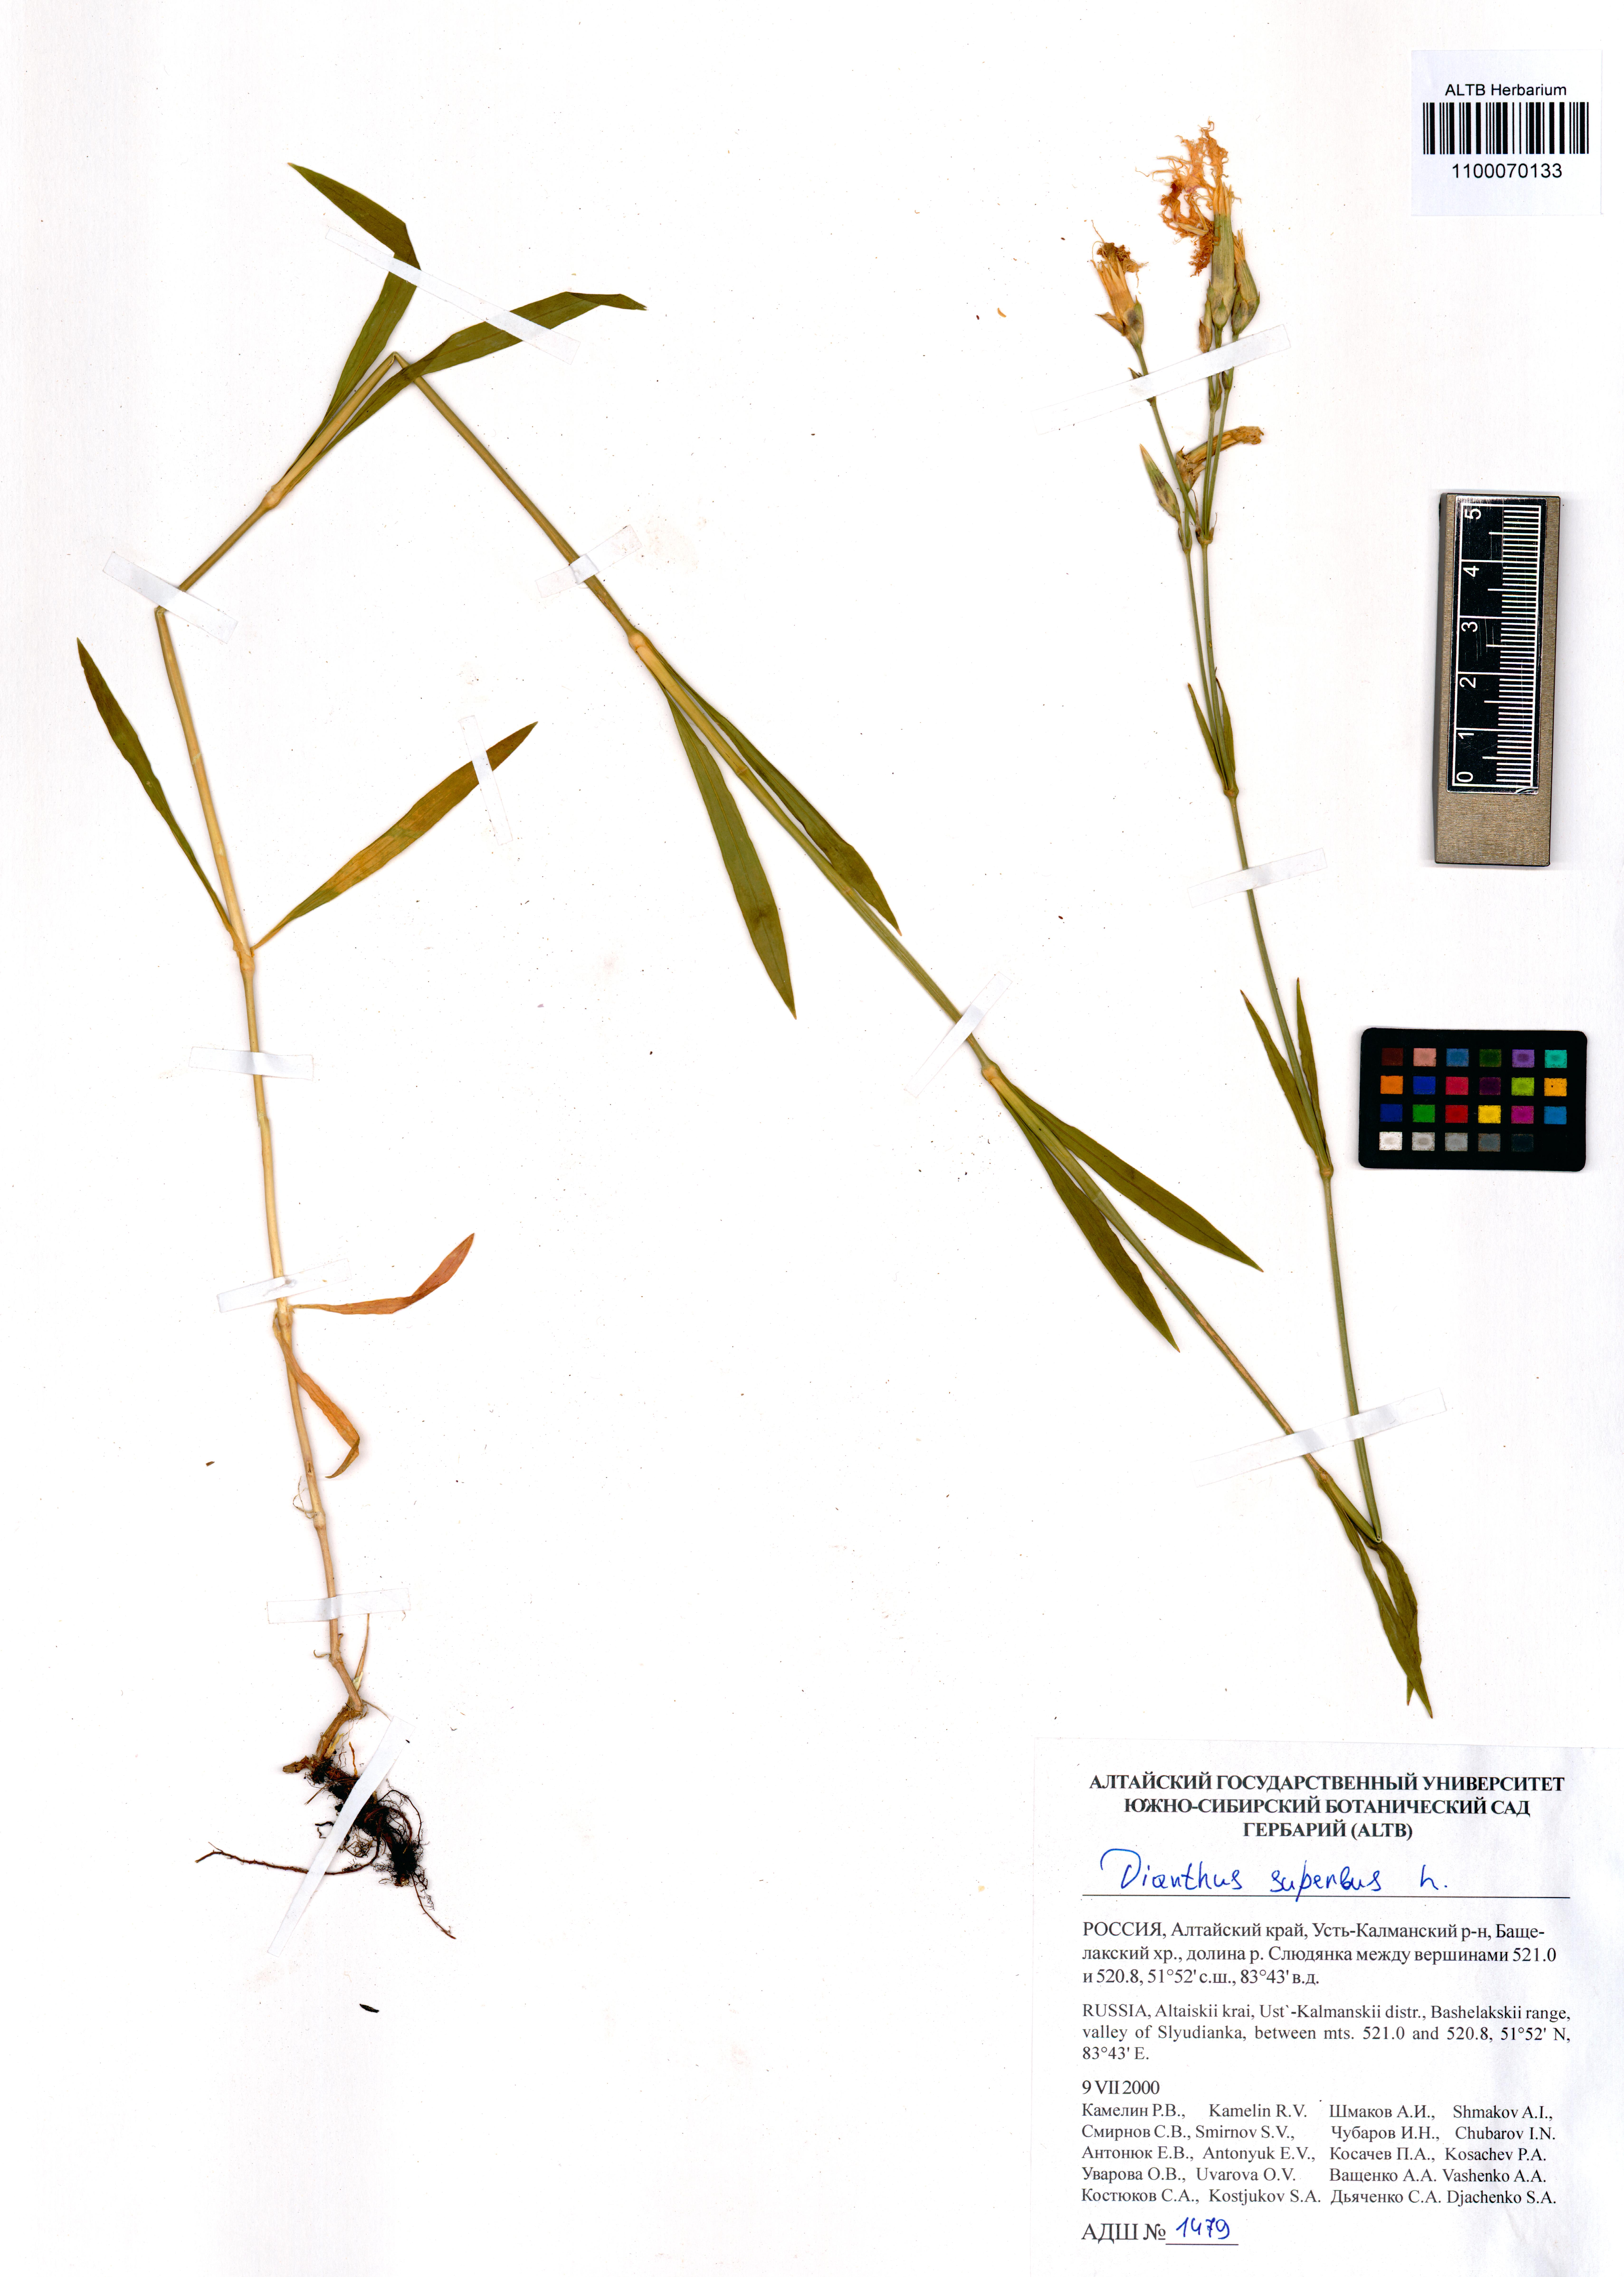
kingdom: Plantae
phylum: Tracheophyta
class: Magnoliopsida
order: Caryophyllales
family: Caryophyllaceae
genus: Dianthus
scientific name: Dianthus superbus
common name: Fringed pink
